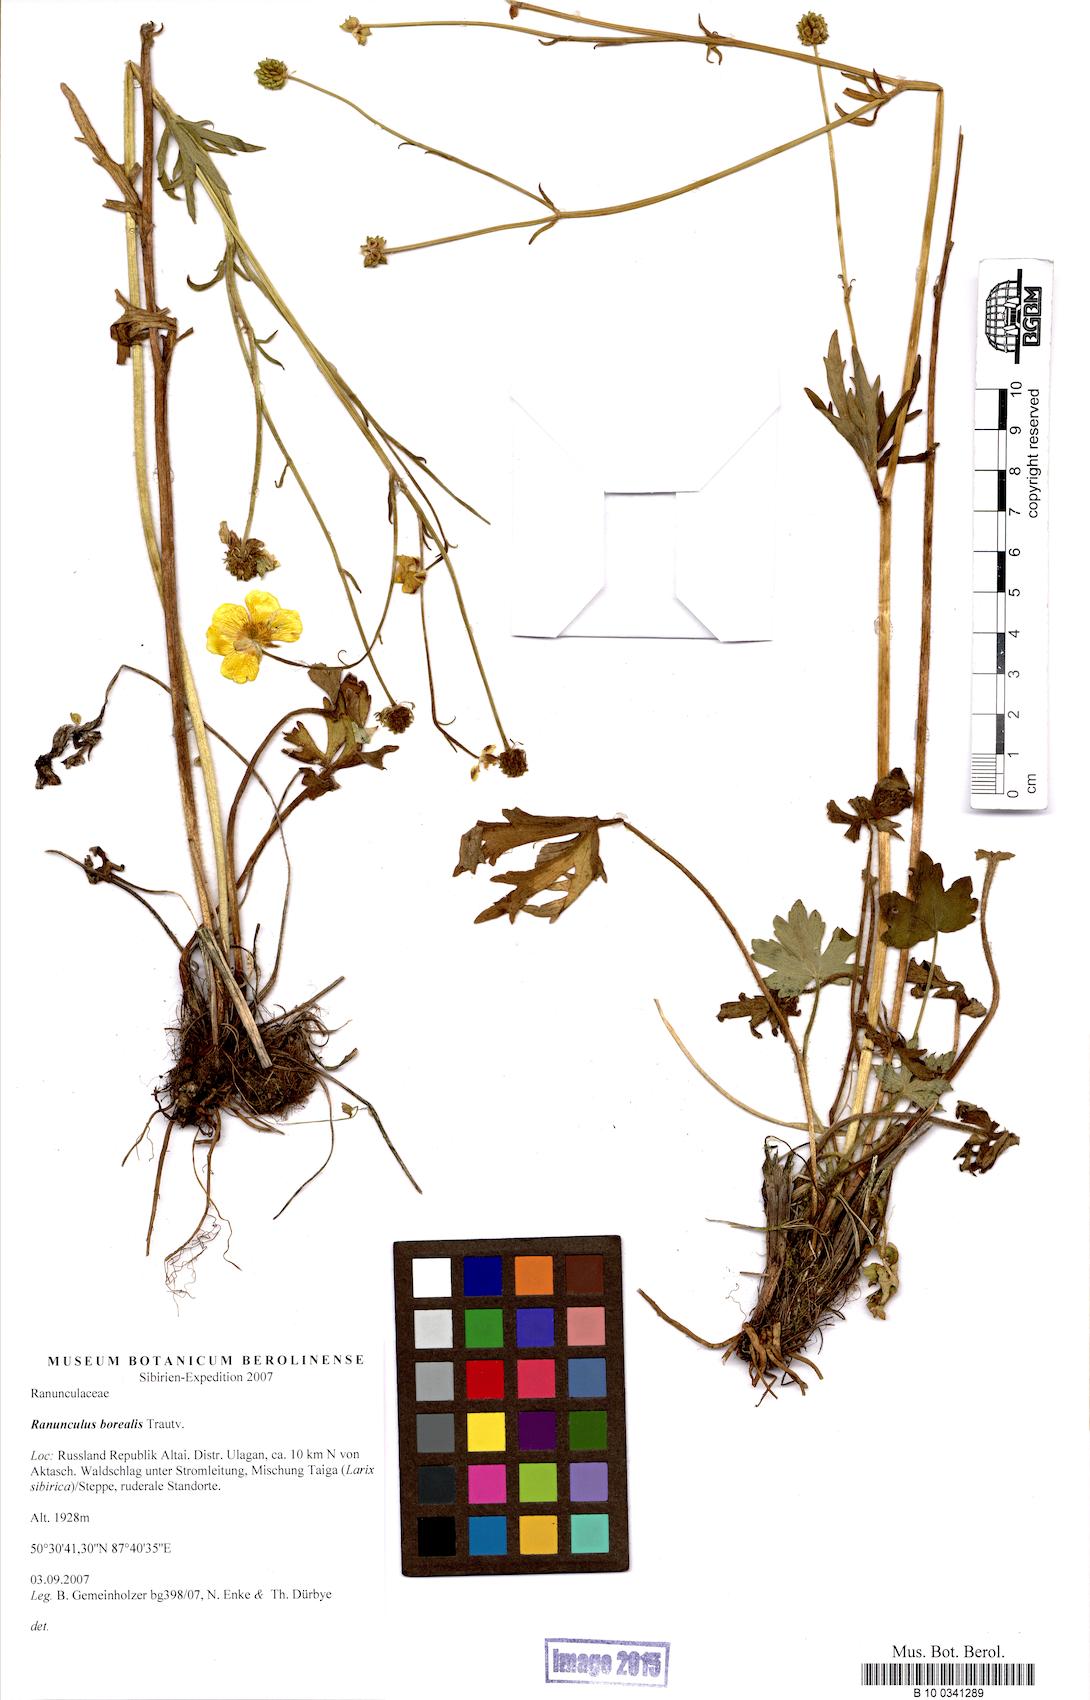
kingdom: Plantae
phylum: Tracheophyta
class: Magnoliopsida
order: Ranunculales
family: Ranunculaceae
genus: Ranunculus
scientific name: Ranunculus propinquus
